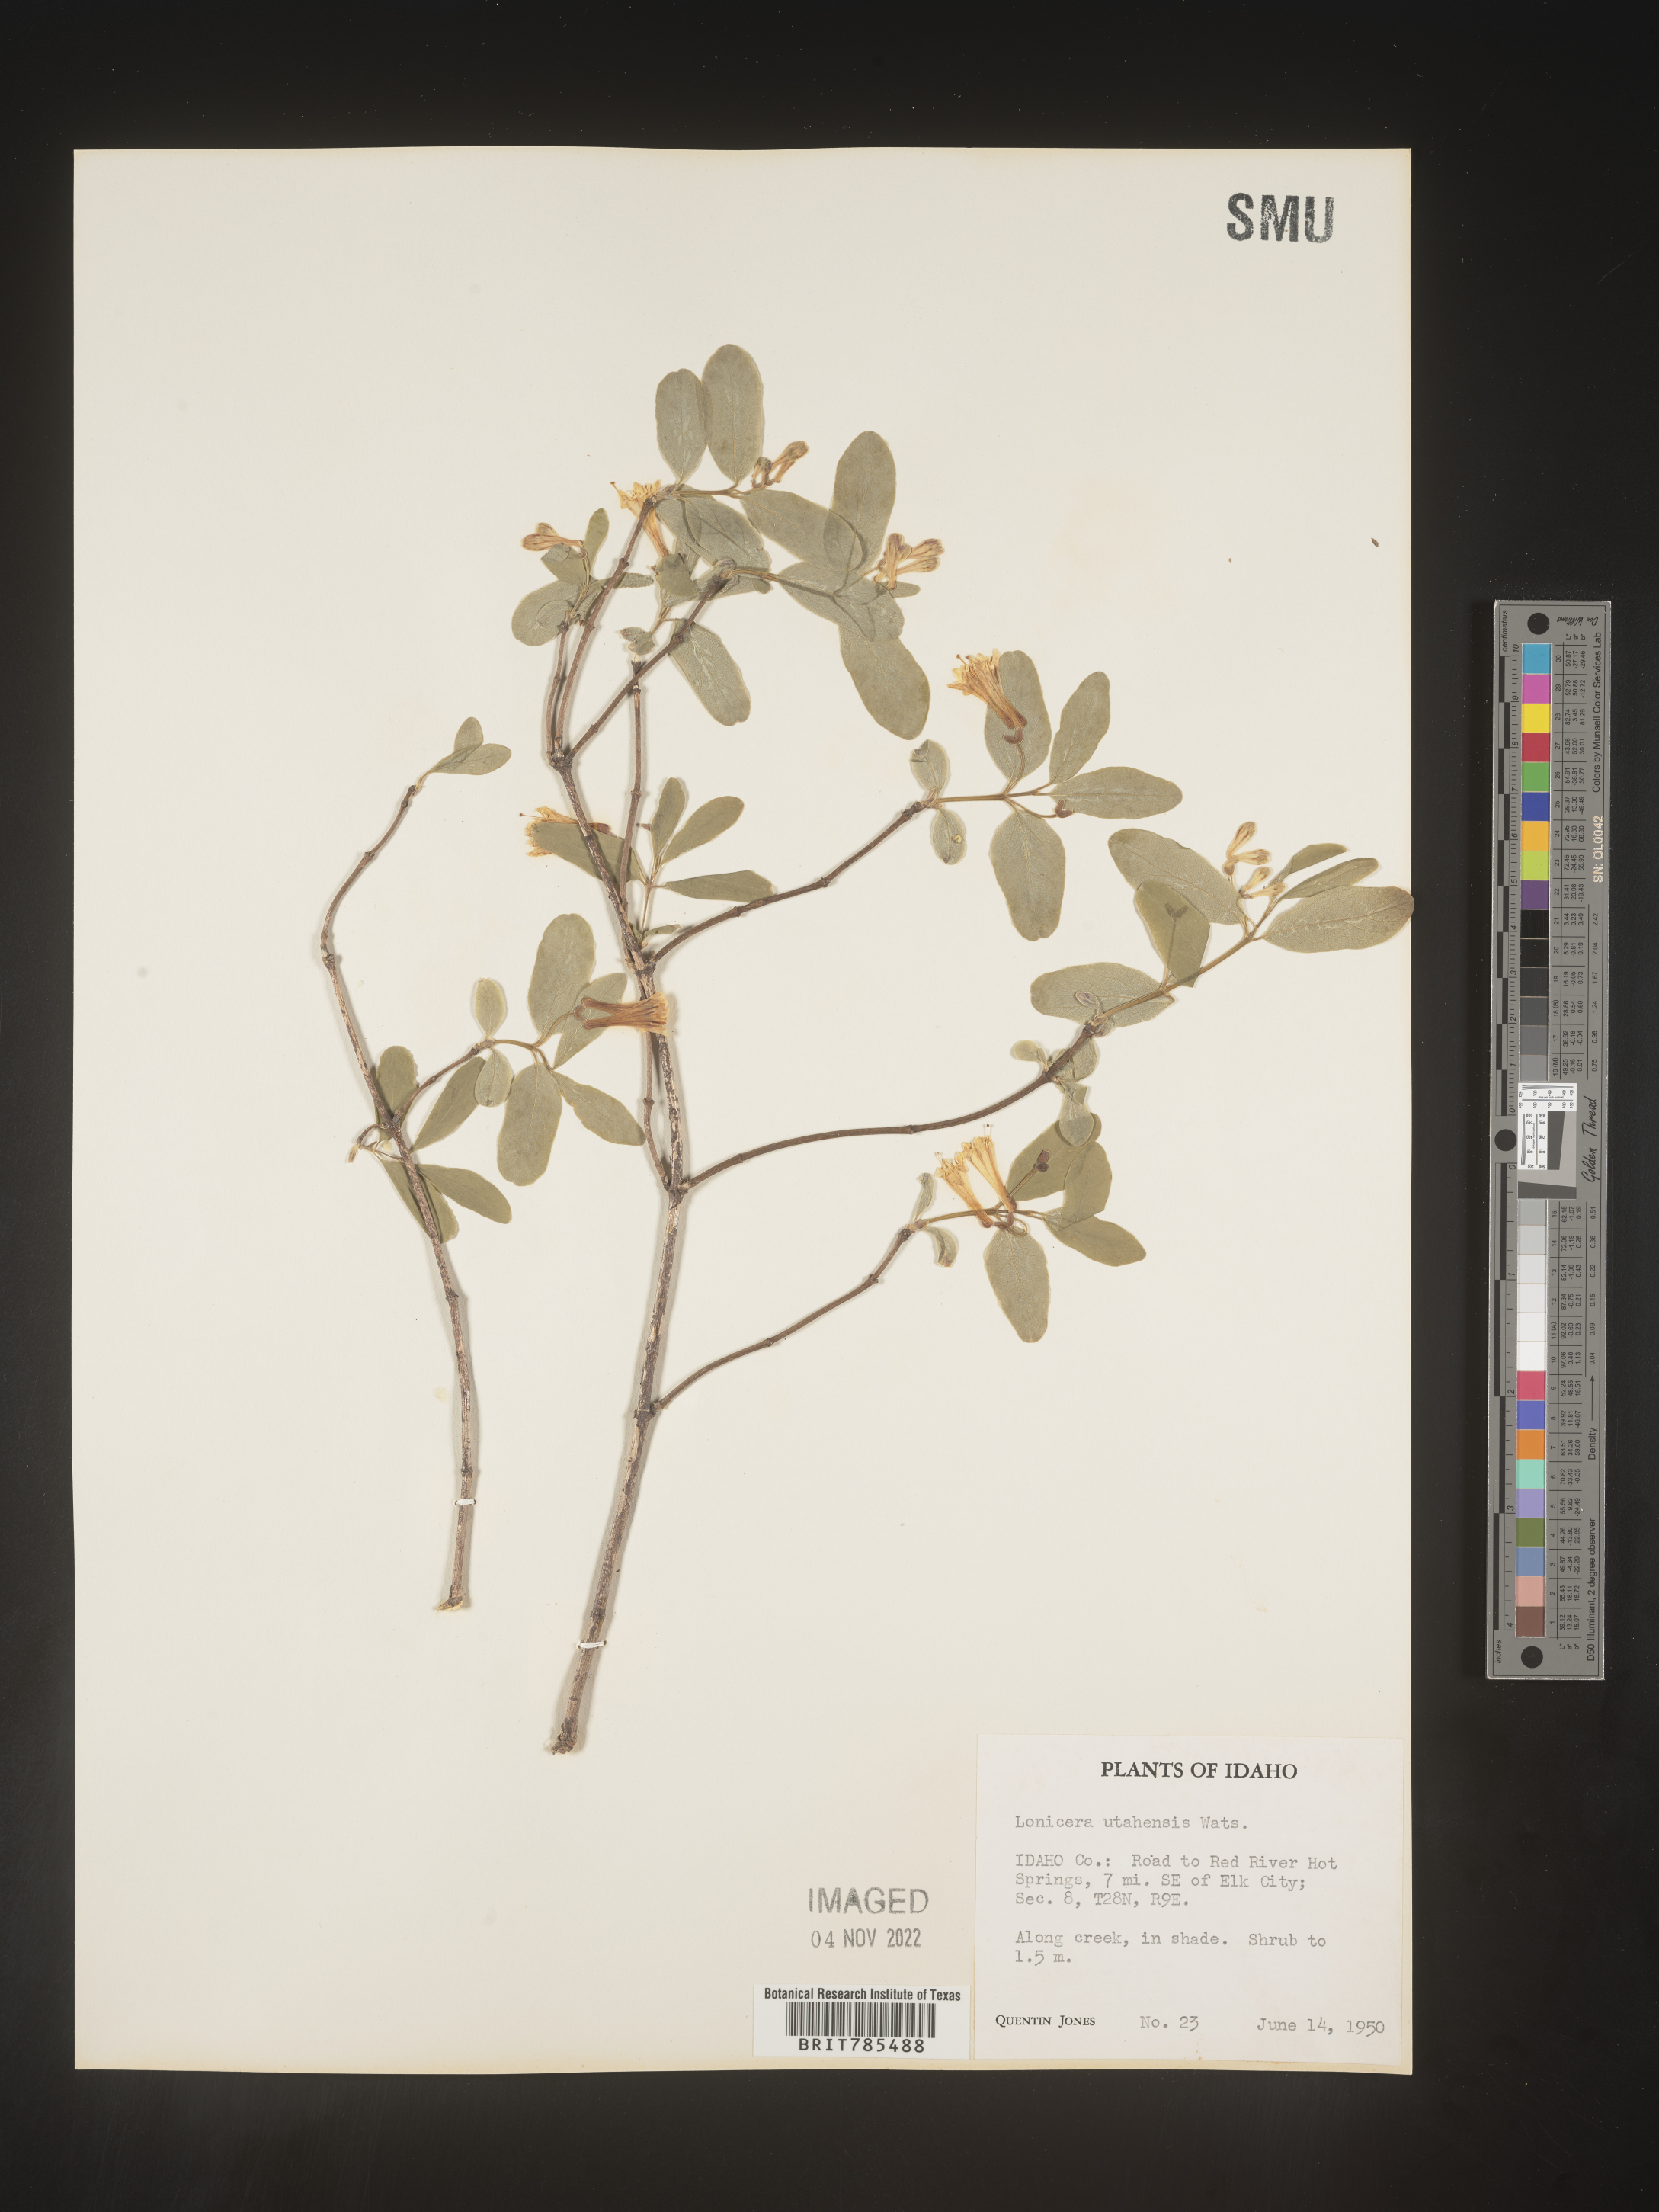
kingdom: Plantae
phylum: Tracheophyta
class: Magnoliopsida
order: Dipsacales
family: Caprifoliaceae
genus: Lonicera
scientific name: Lonicera utahensis
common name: Utah honeysuckle
